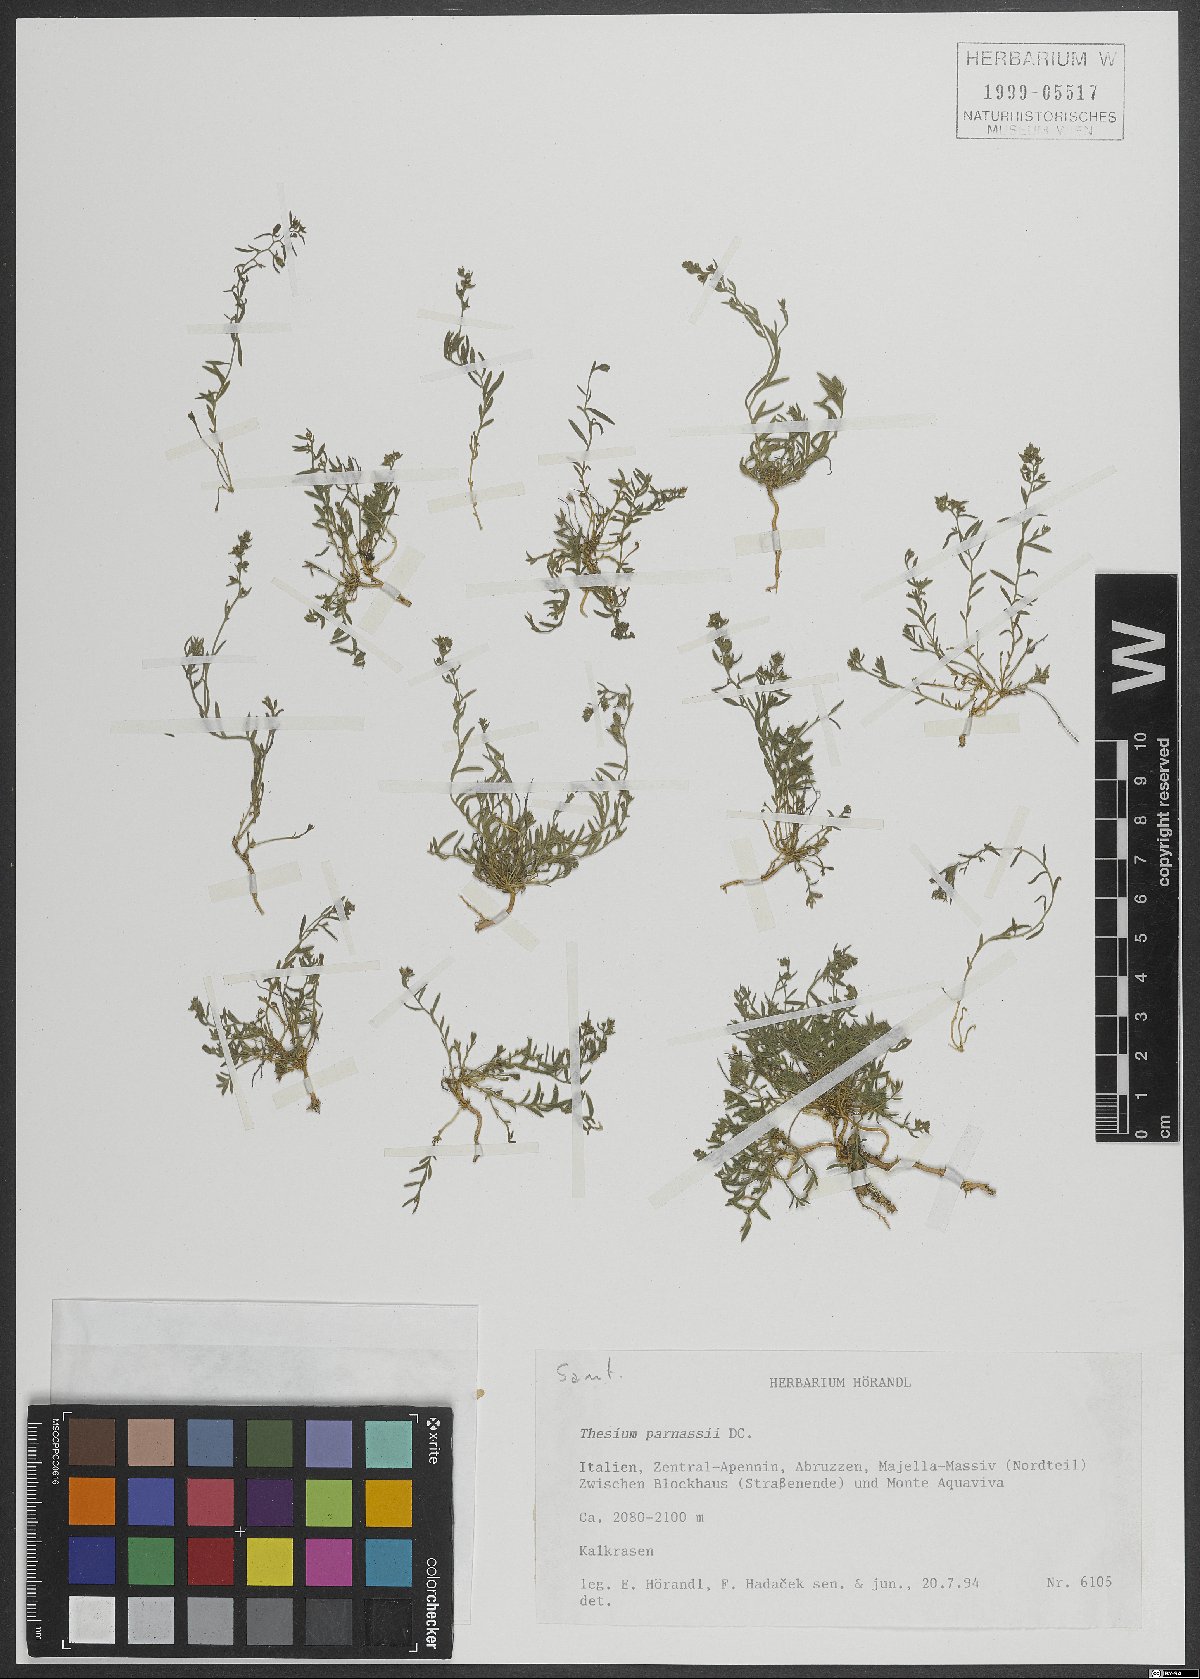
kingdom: Plantae
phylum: Tracheophyta
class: Magnoliopsida
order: Santalales
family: Thesiaceae
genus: Thesium
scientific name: Thesium parnassi
